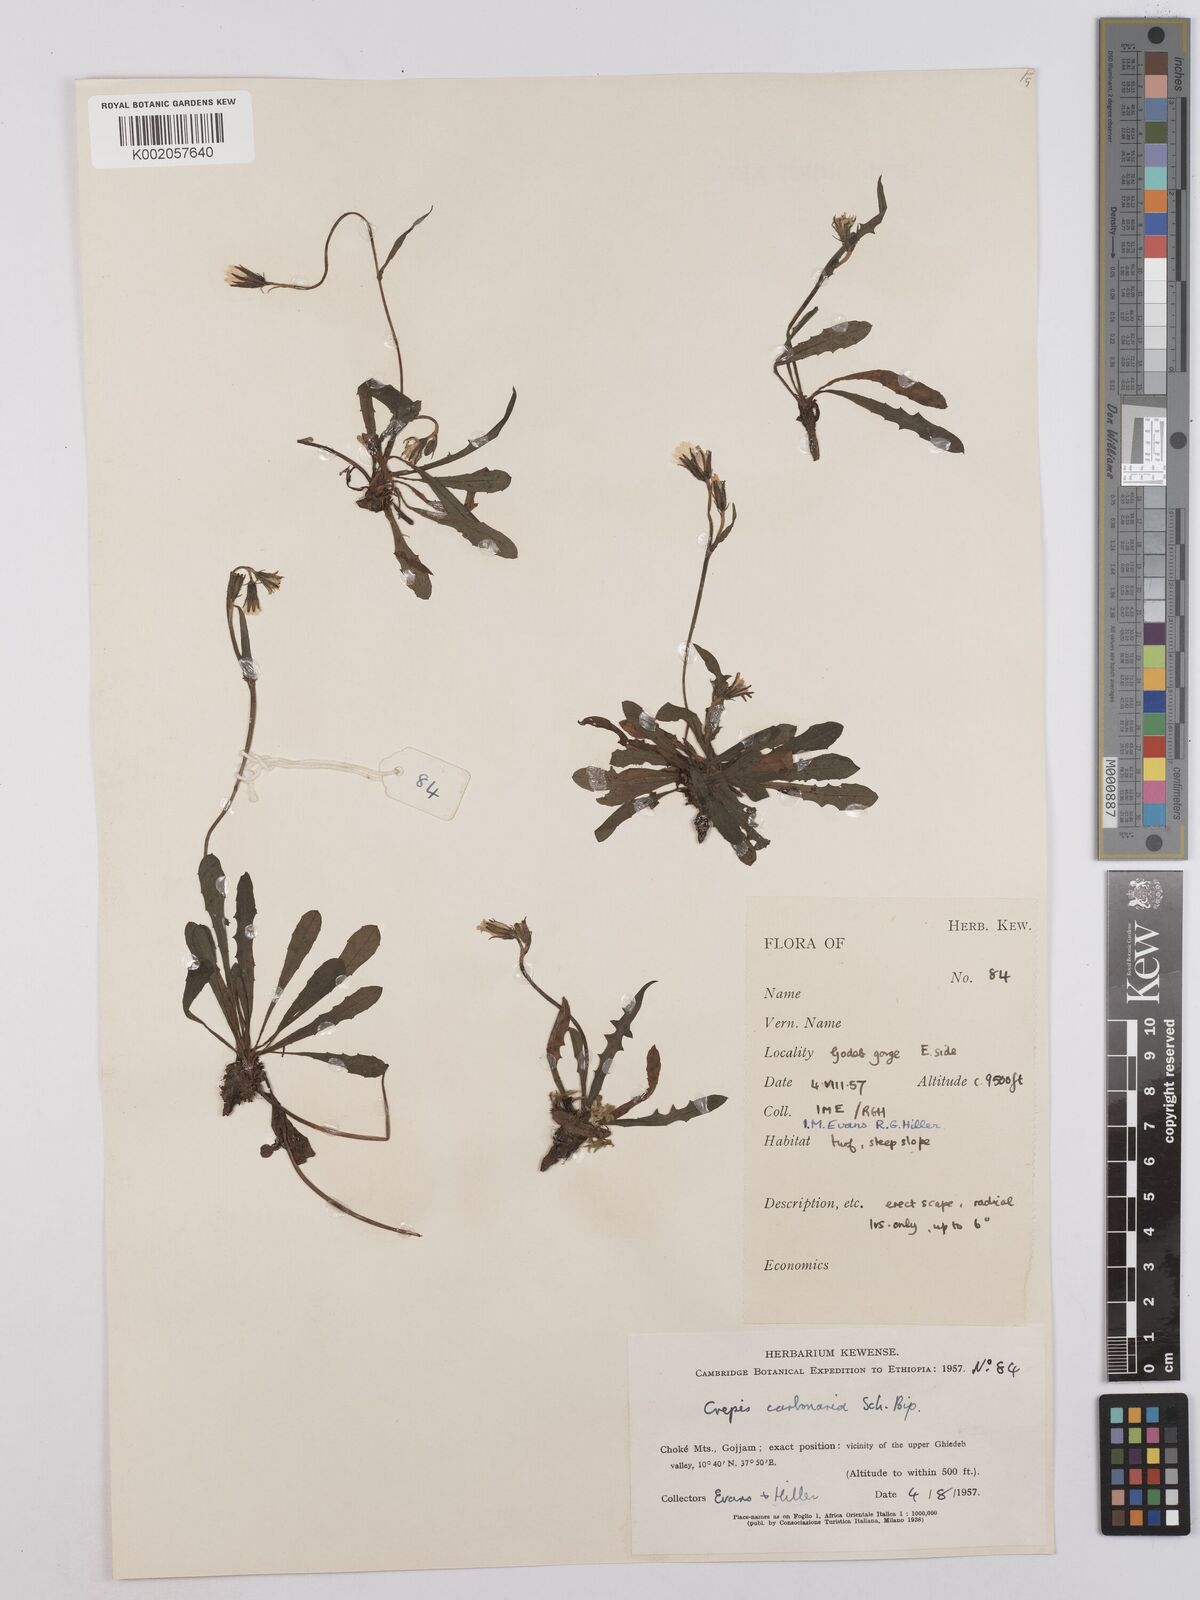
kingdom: Plantae
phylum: Tracheophyta
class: Magnoliopsida
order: Asterales
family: Asteraceae
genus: Crepis
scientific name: Crepis carbonaria
